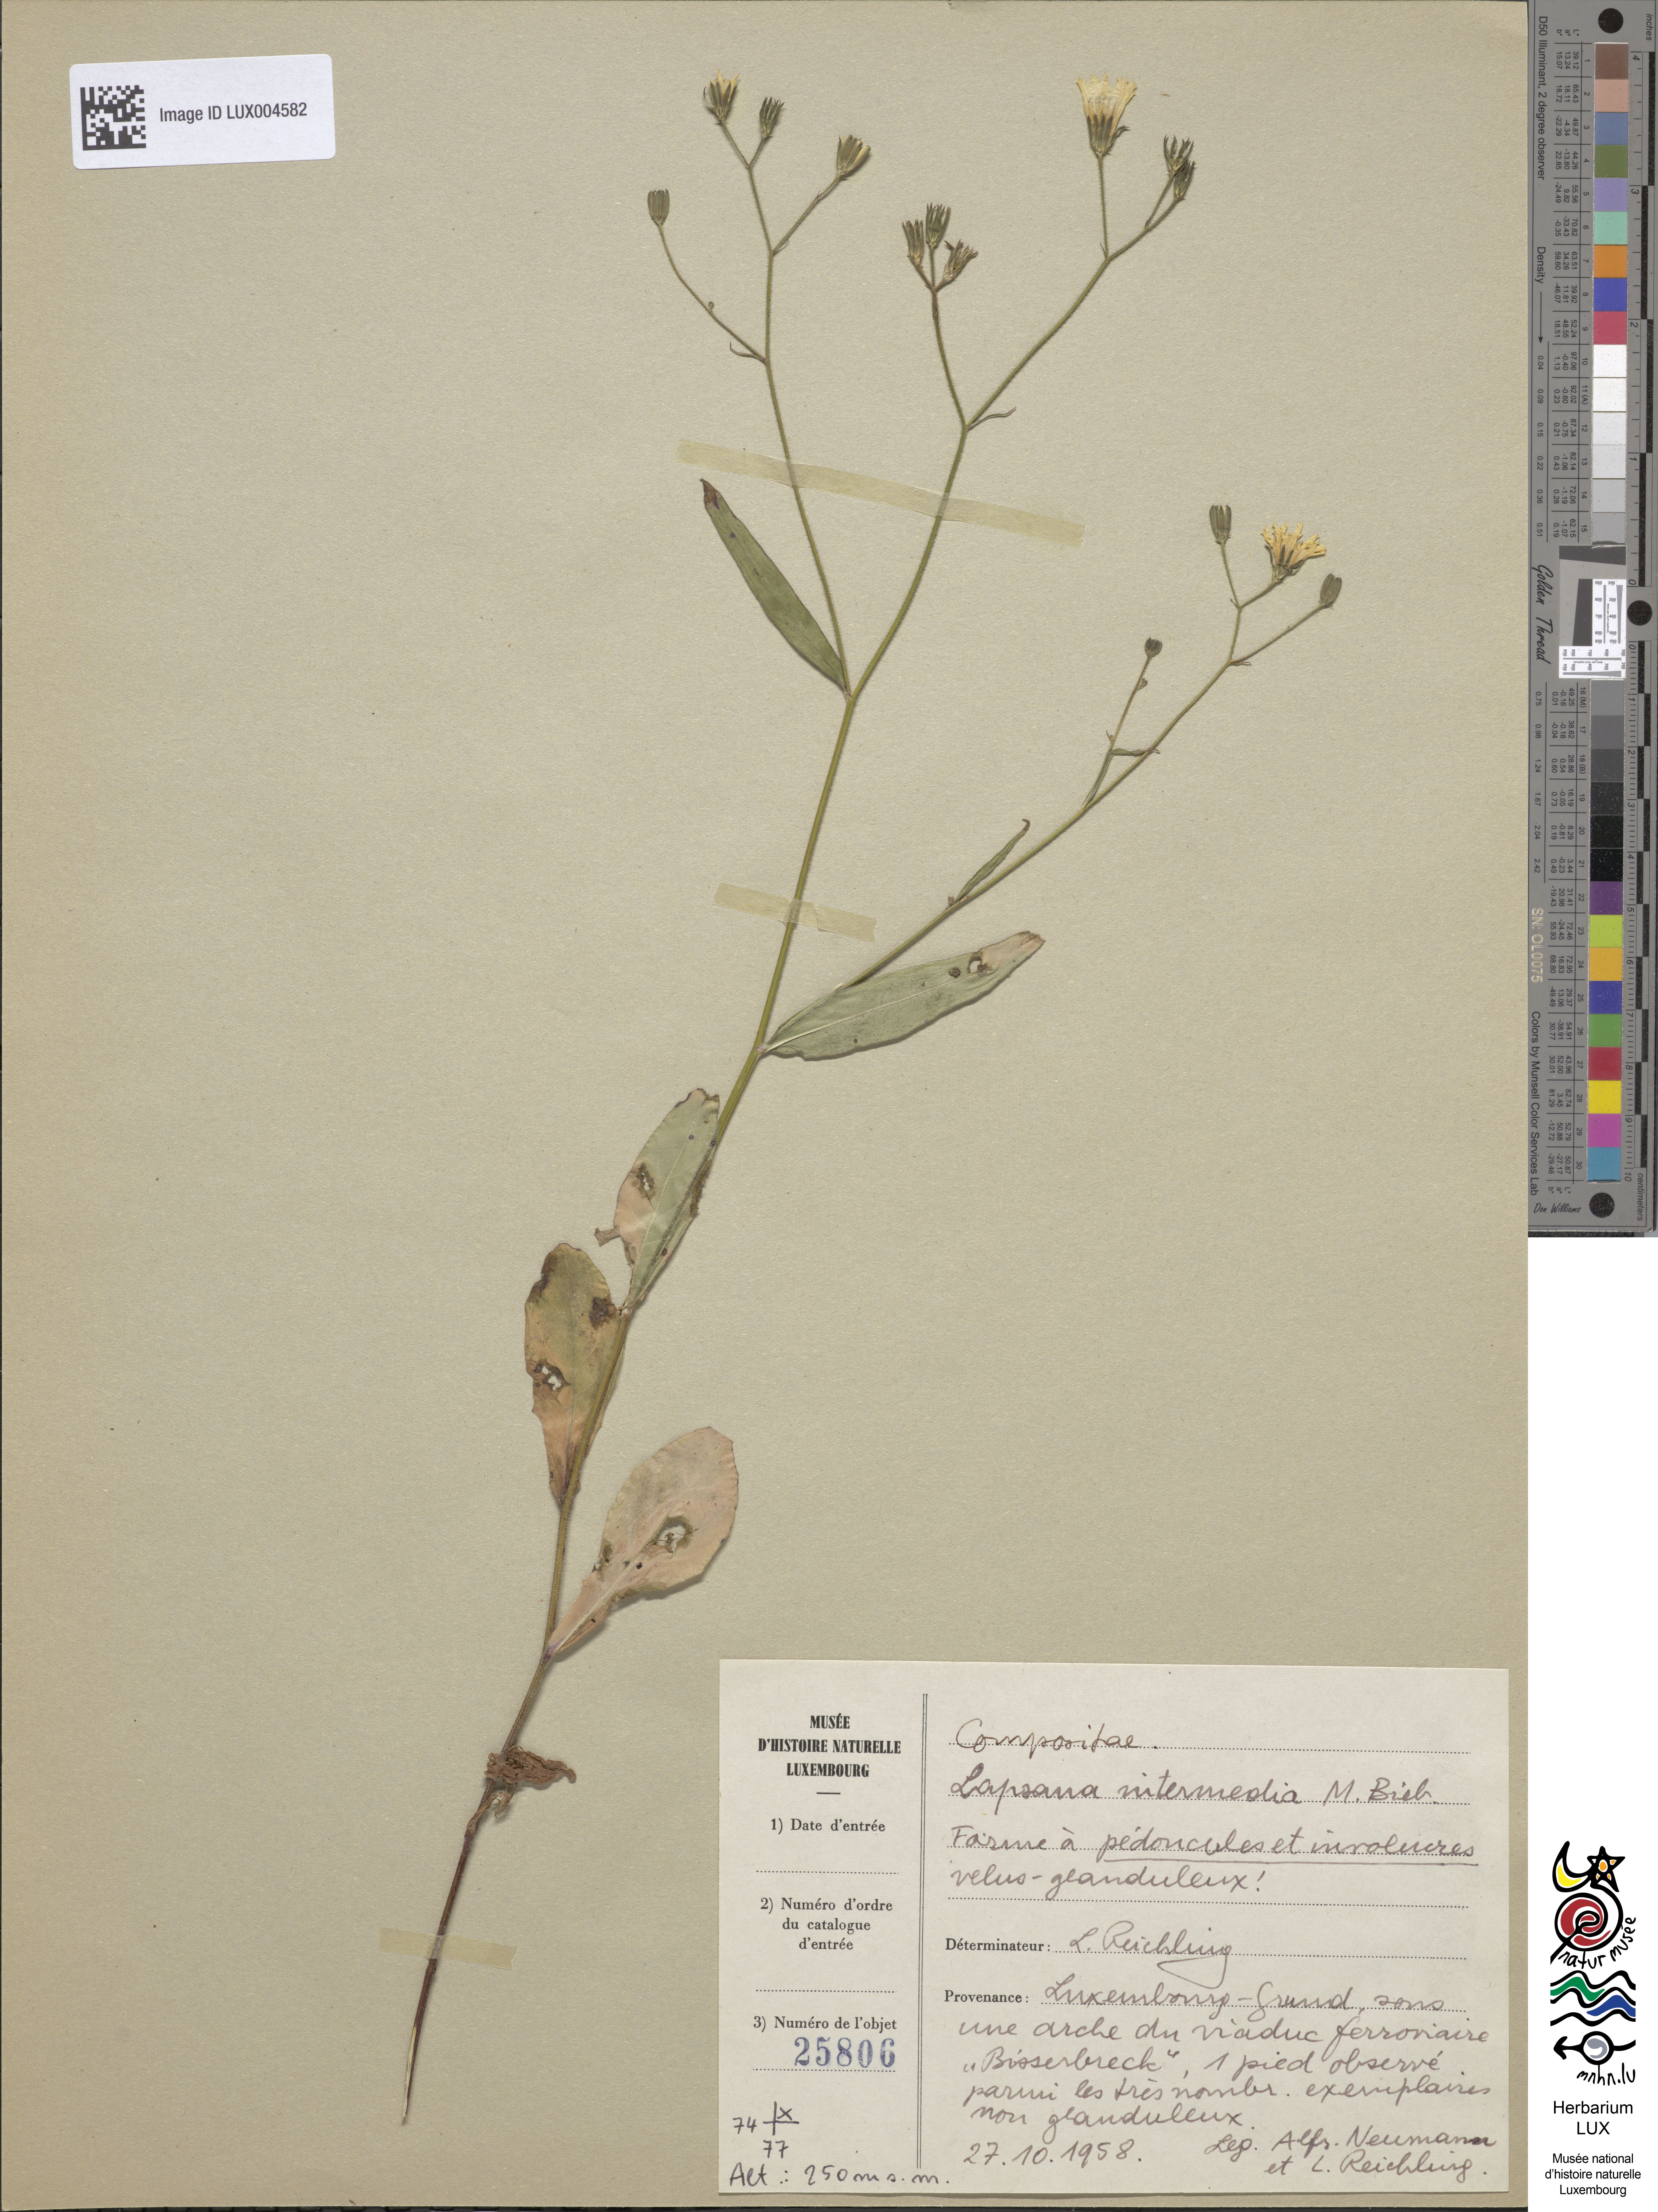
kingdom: Plantae
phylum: Tracheophyta
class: Magnoliopsida
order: Asterales
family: Asteraceae
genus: Lapsana
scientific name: Lapsana communis
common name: Nipplewort
